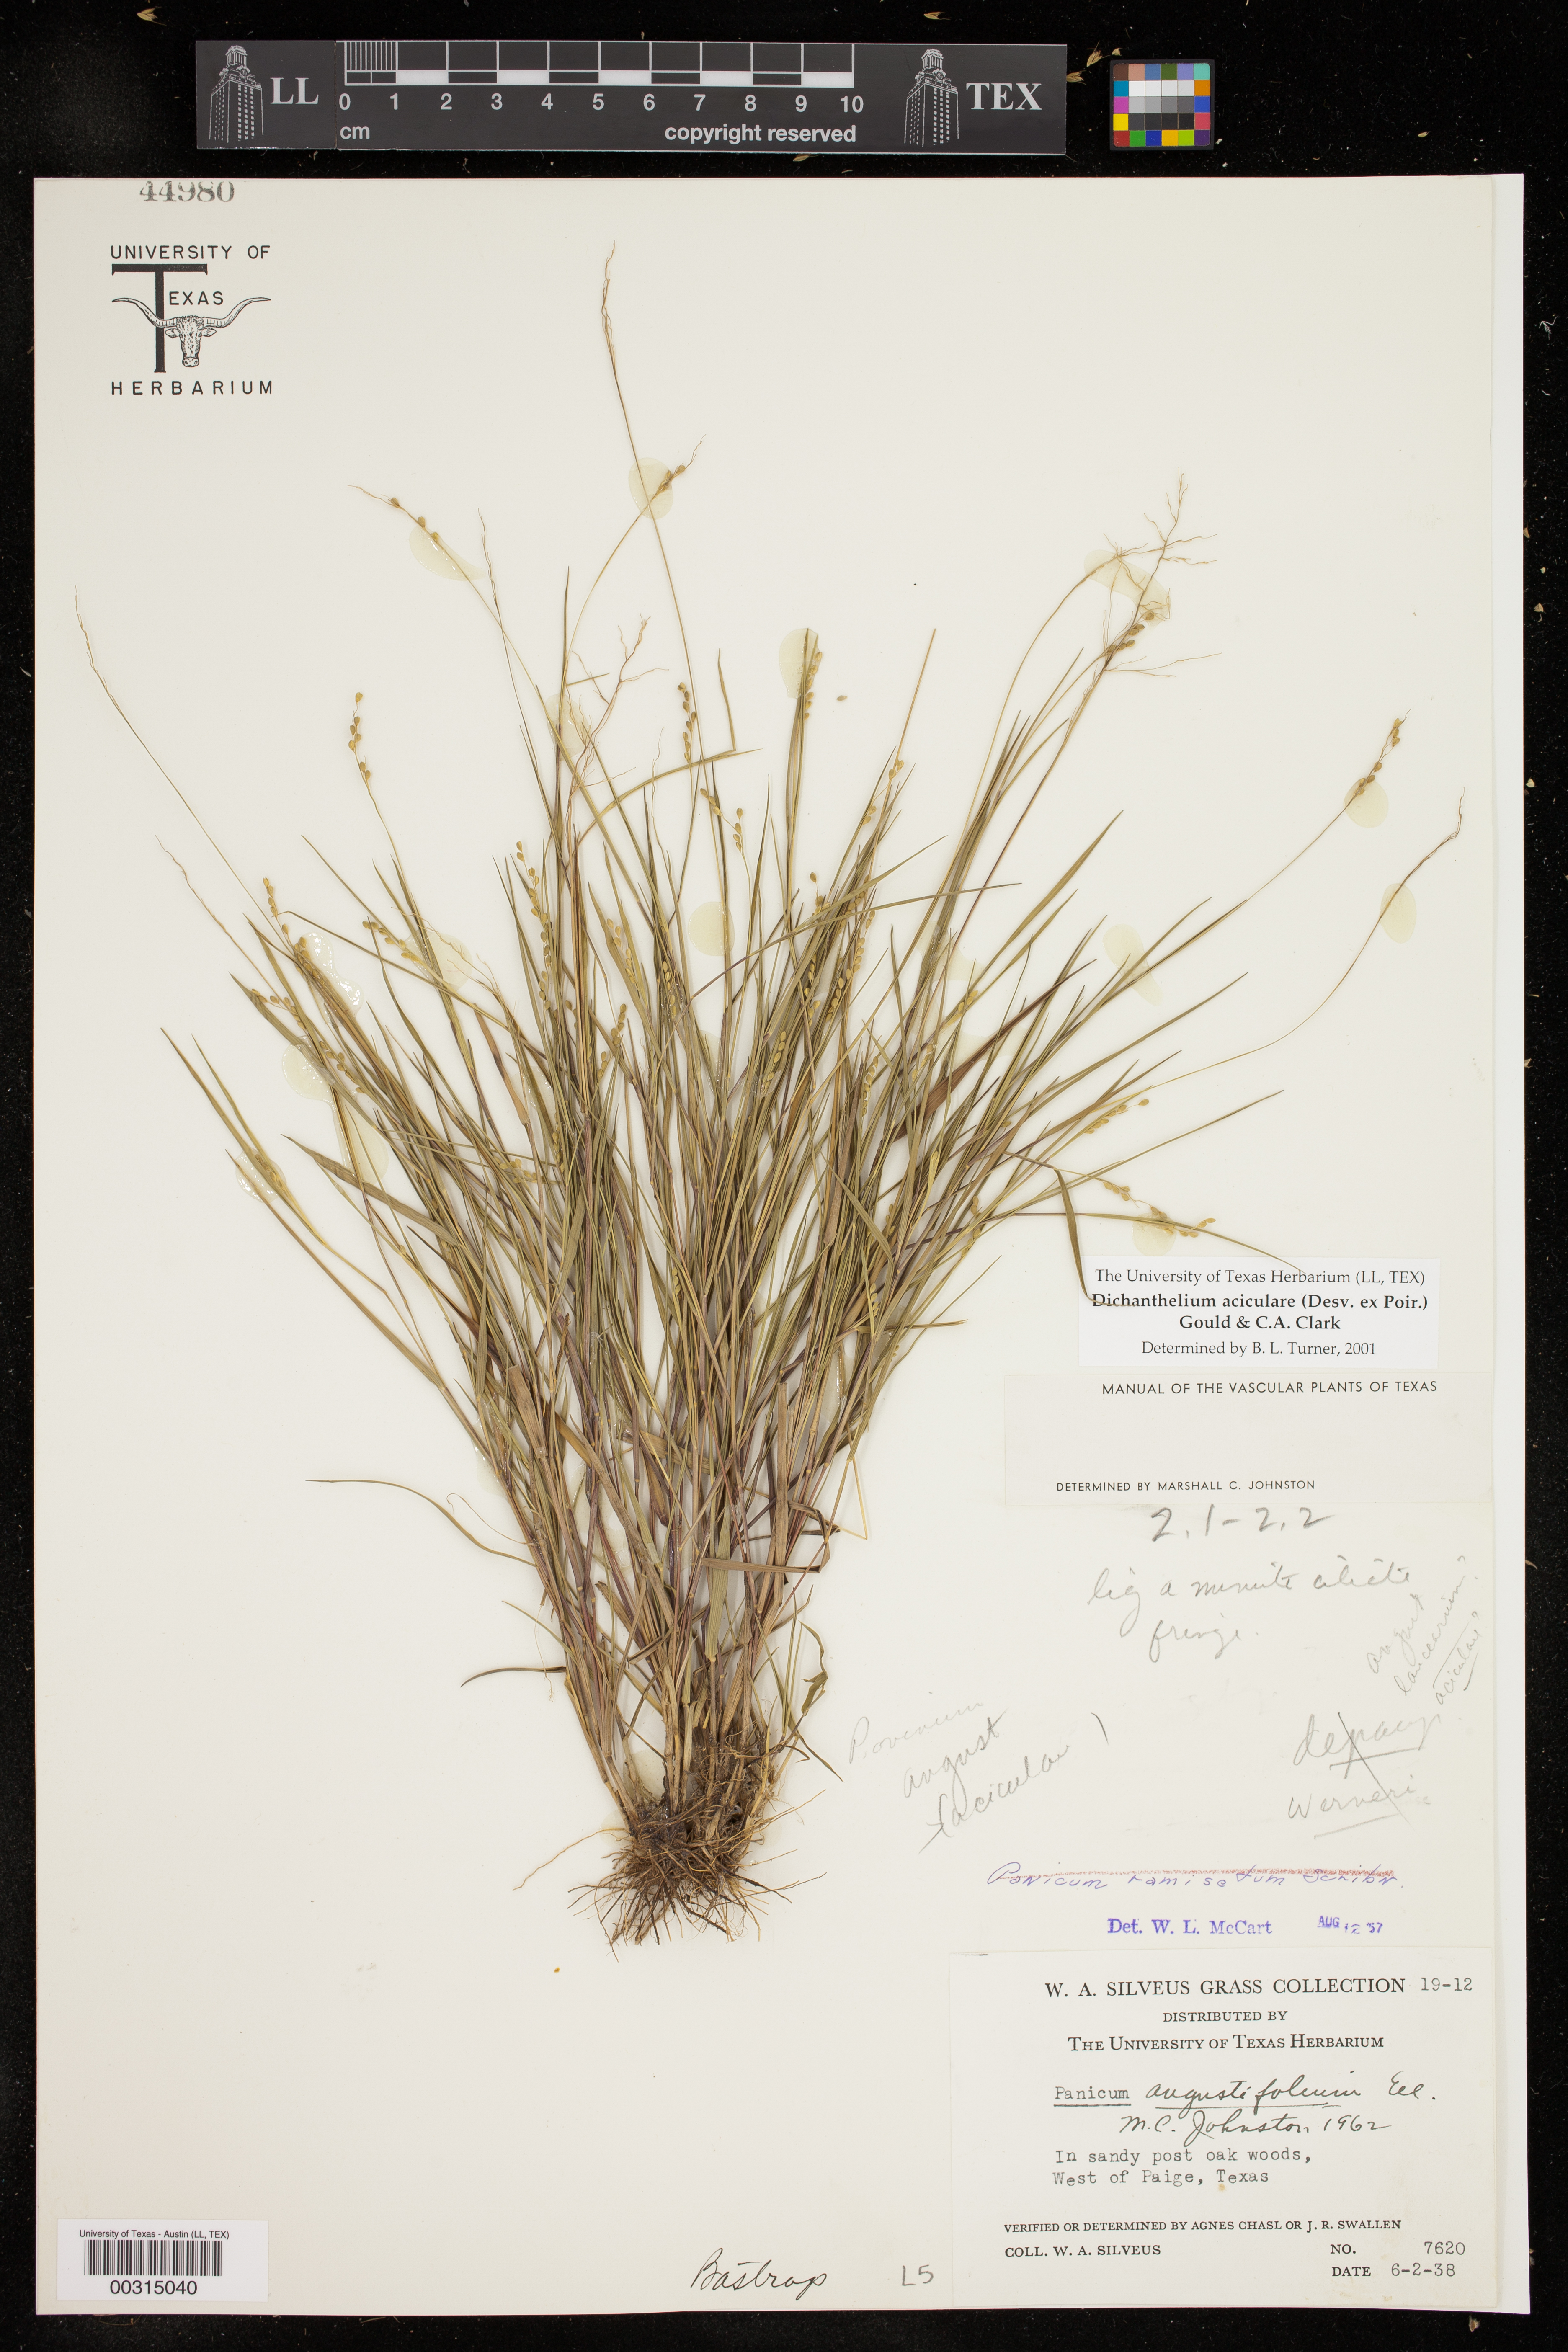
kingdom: Plantae
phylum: Tracheophyta
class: Liliopsida
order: Poales
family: Poaceae
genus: Dichanthelium
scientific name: Dichanthelium aciculare
